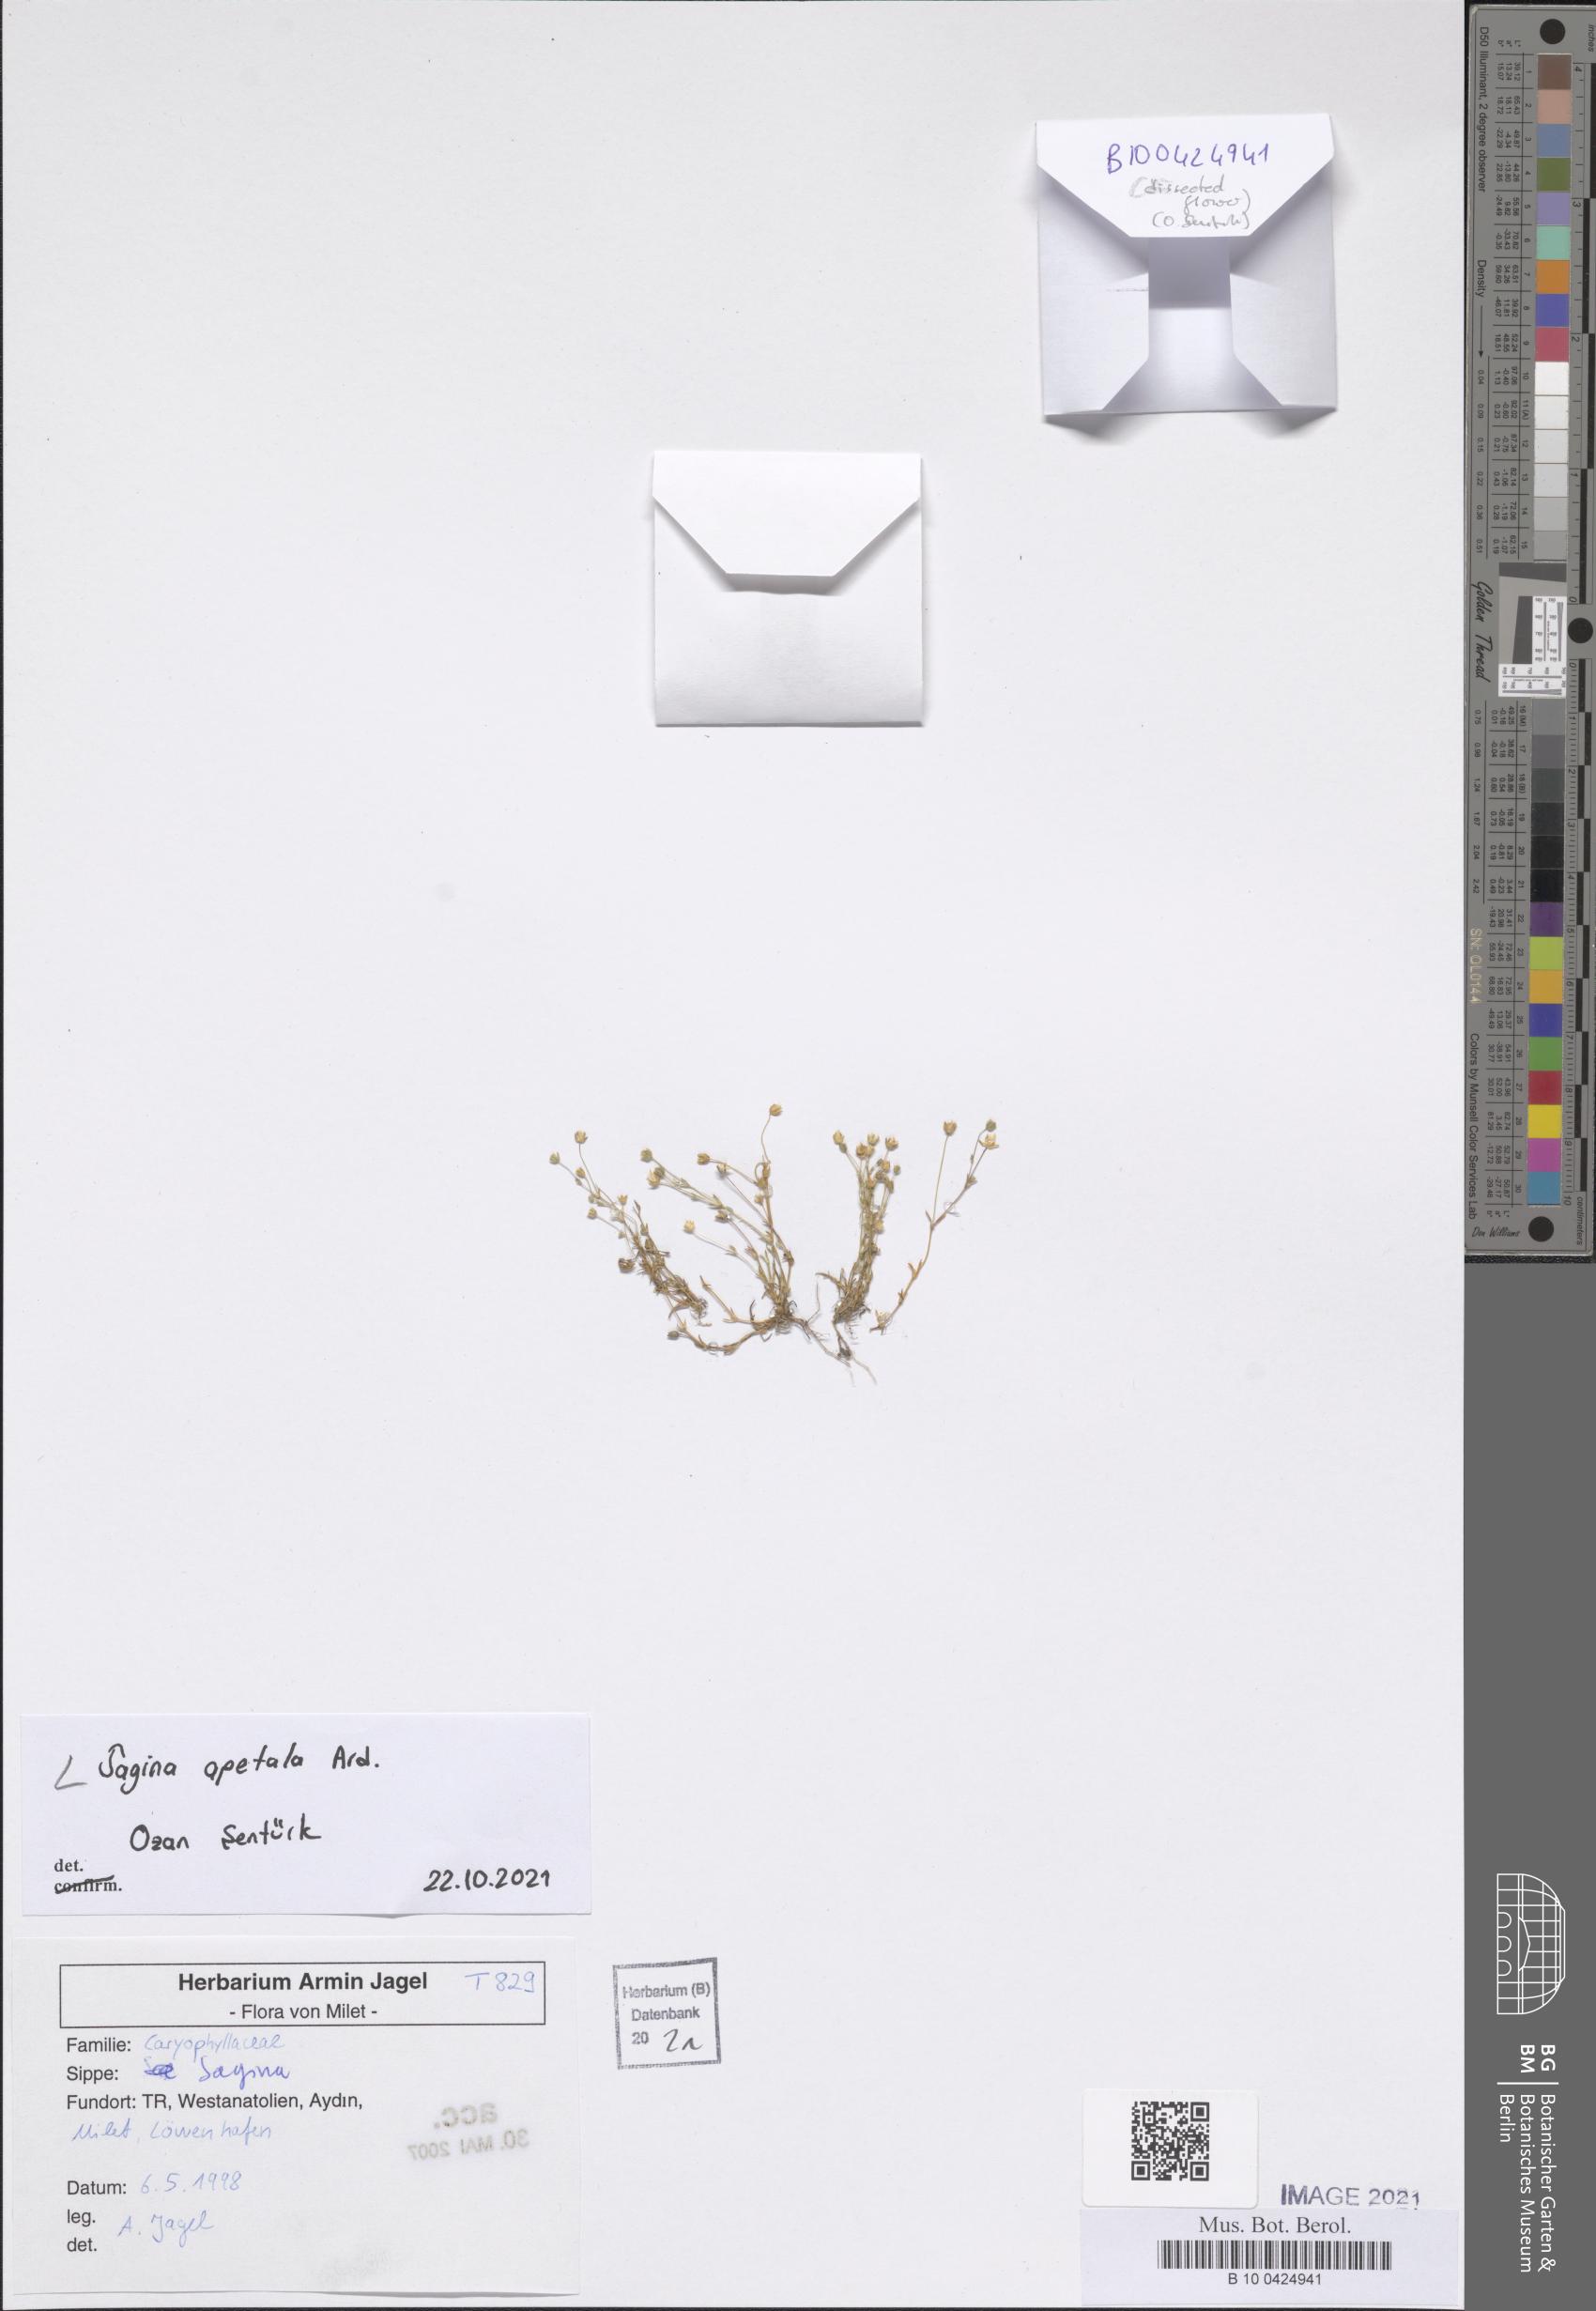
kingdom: Plantae
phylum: Tracheophyta
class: Magnoliopsida
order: Caryophyllales
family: Caryophyllaceae
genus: Sagina
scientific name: Sagina apetala
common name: Annual pearlwort
